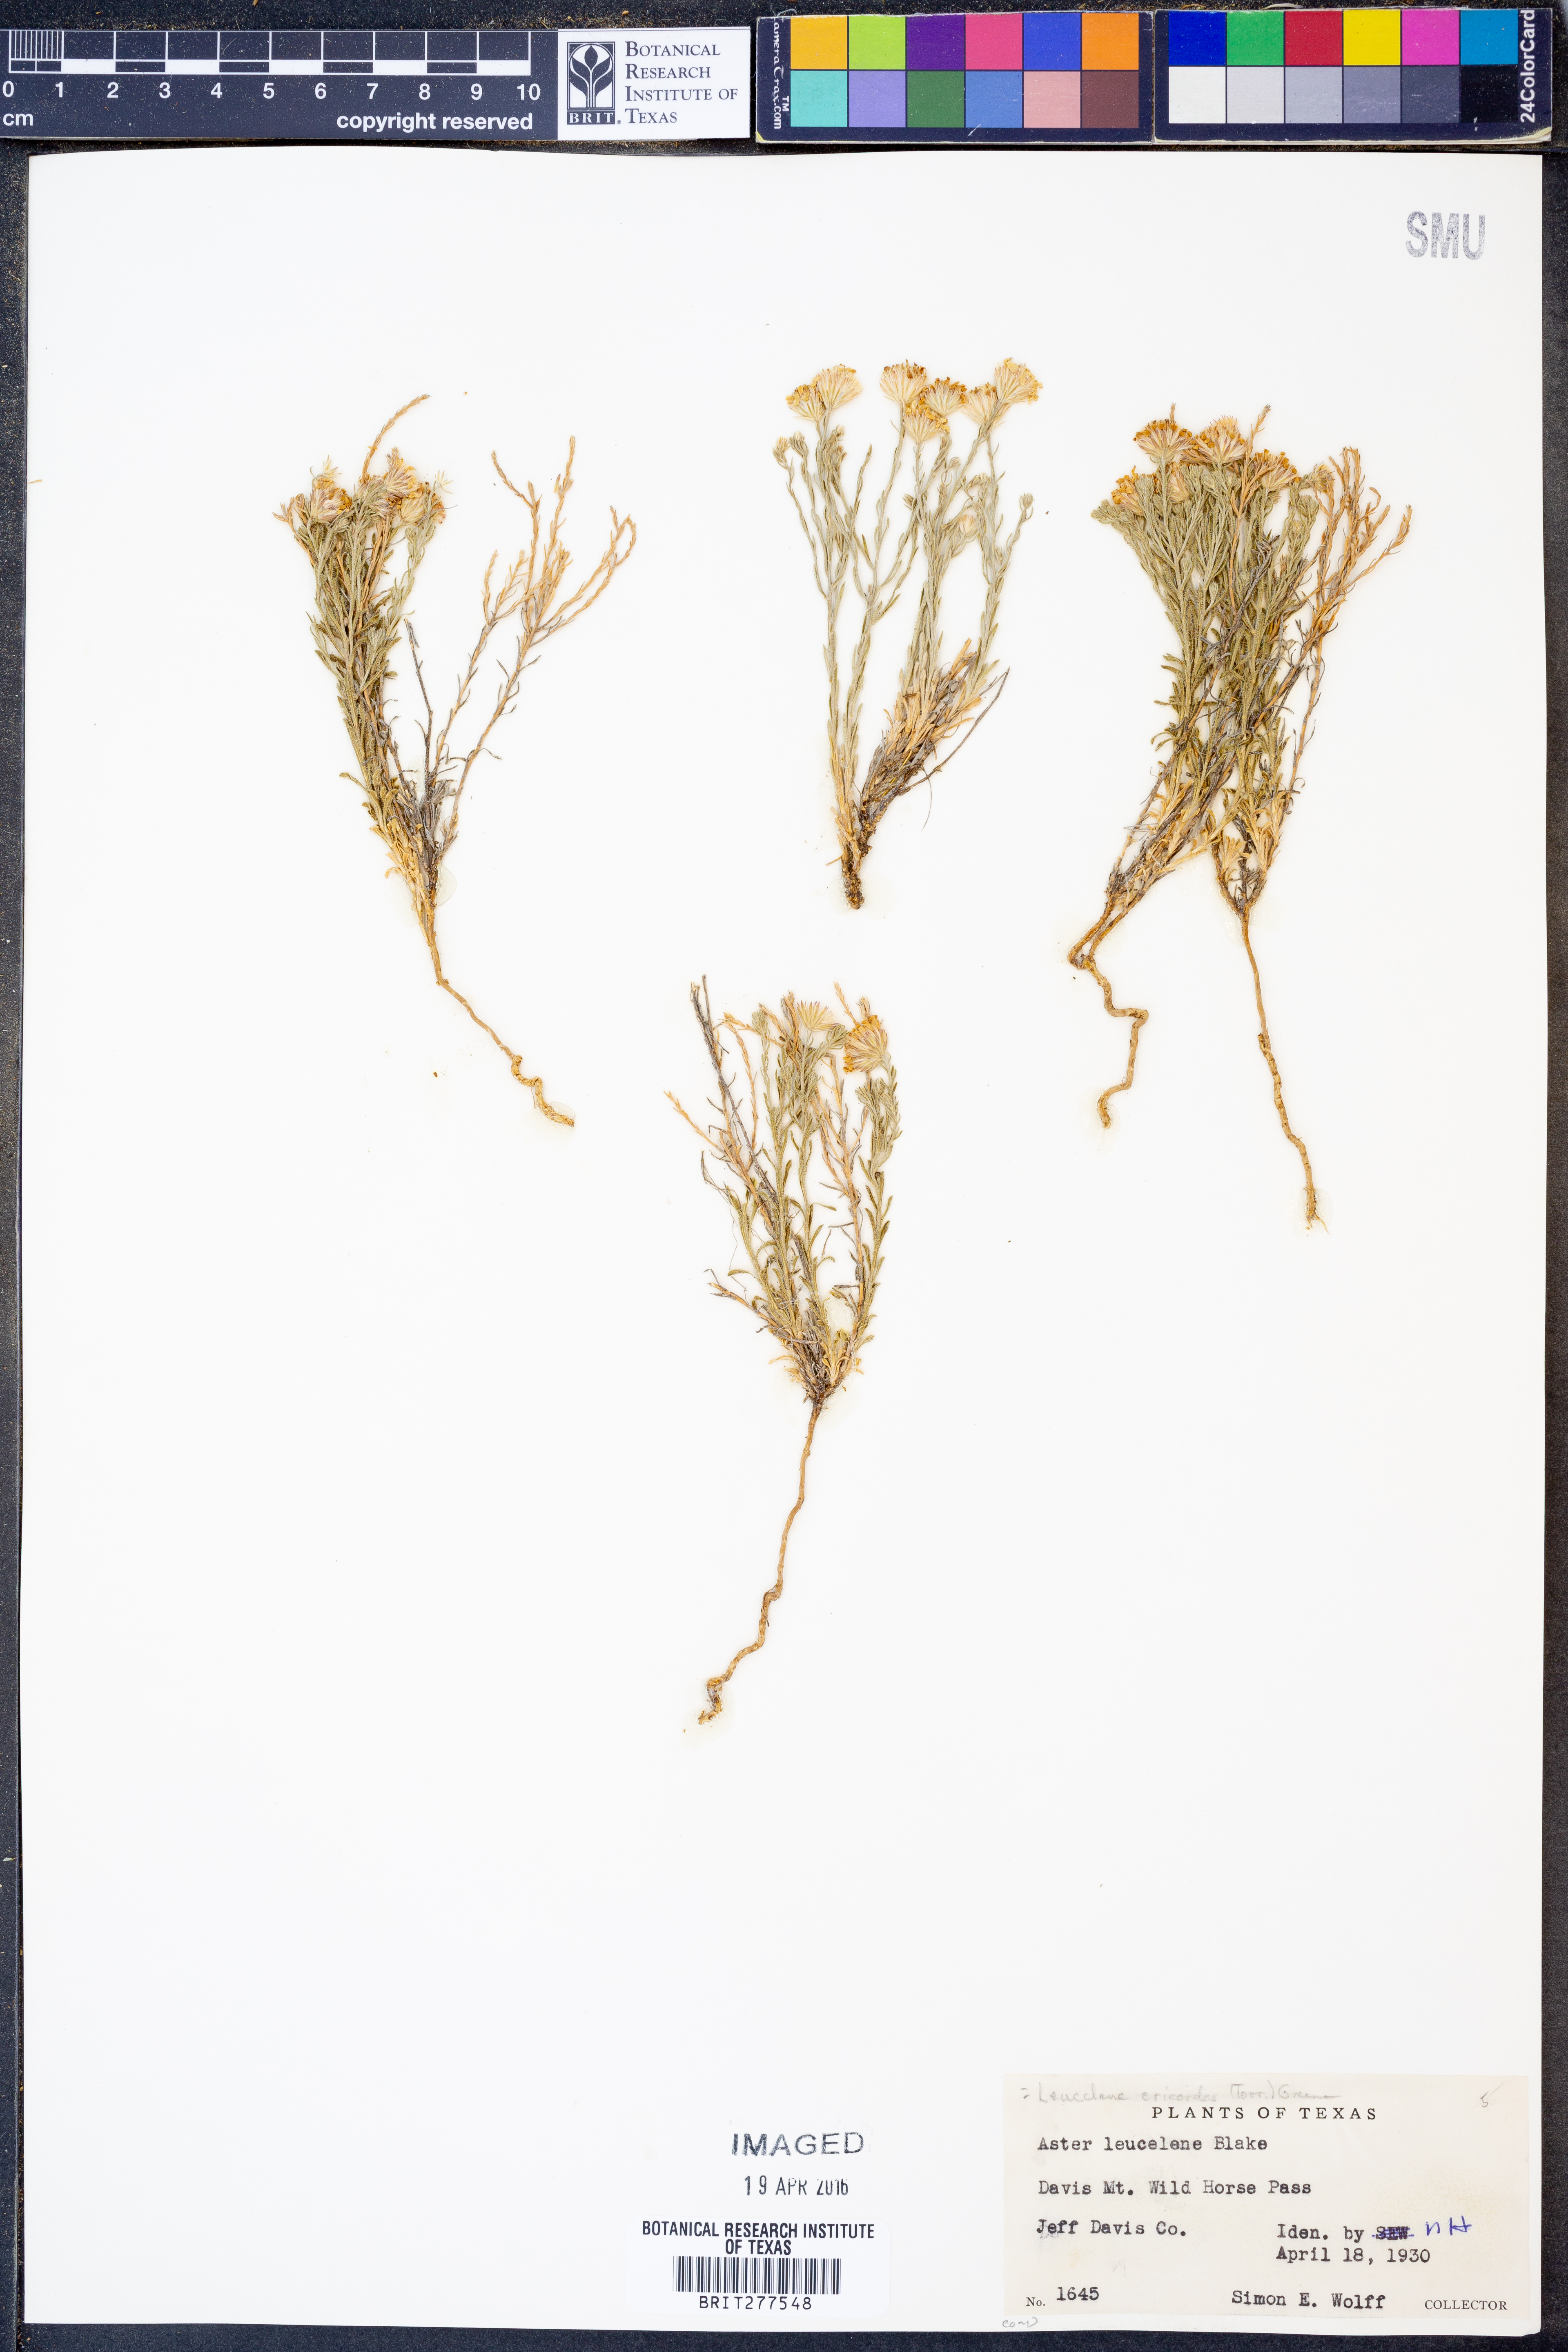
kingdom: Plantae
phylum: Tracheophyta
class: Magnoliopsida
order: Asterales
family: Asteraceae
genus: Chaetopappa
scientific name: Chaetopappa ericoides
